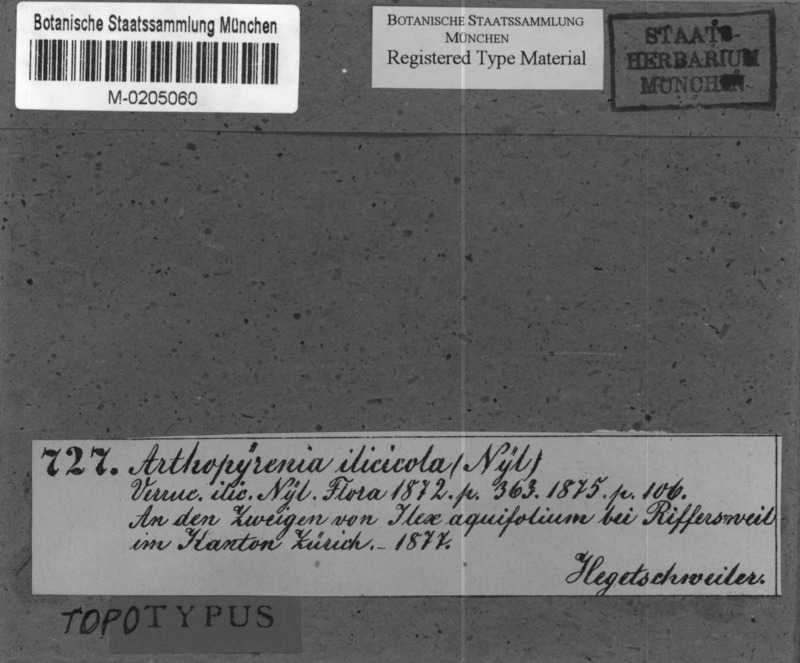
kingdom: Fungi
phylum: Ascomycota
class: Dothideomycetes
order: Pleosporales
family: Arthopyreniaceae
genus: Arthopyrenia
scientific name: Arthopyrenia ilicicola
